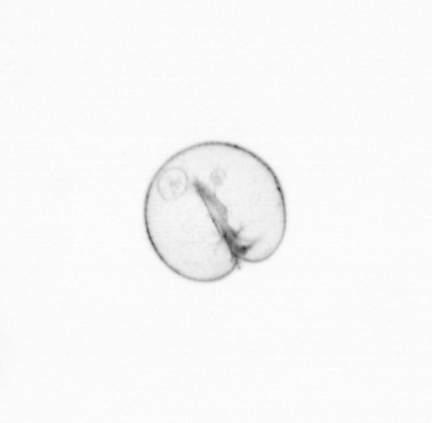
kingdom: Chromista
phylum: Myzozoa
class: Dinophyceae
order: Noctilucales
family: Noctilucaceae
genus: Noctiluca
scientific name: Noctiluca scintillans
